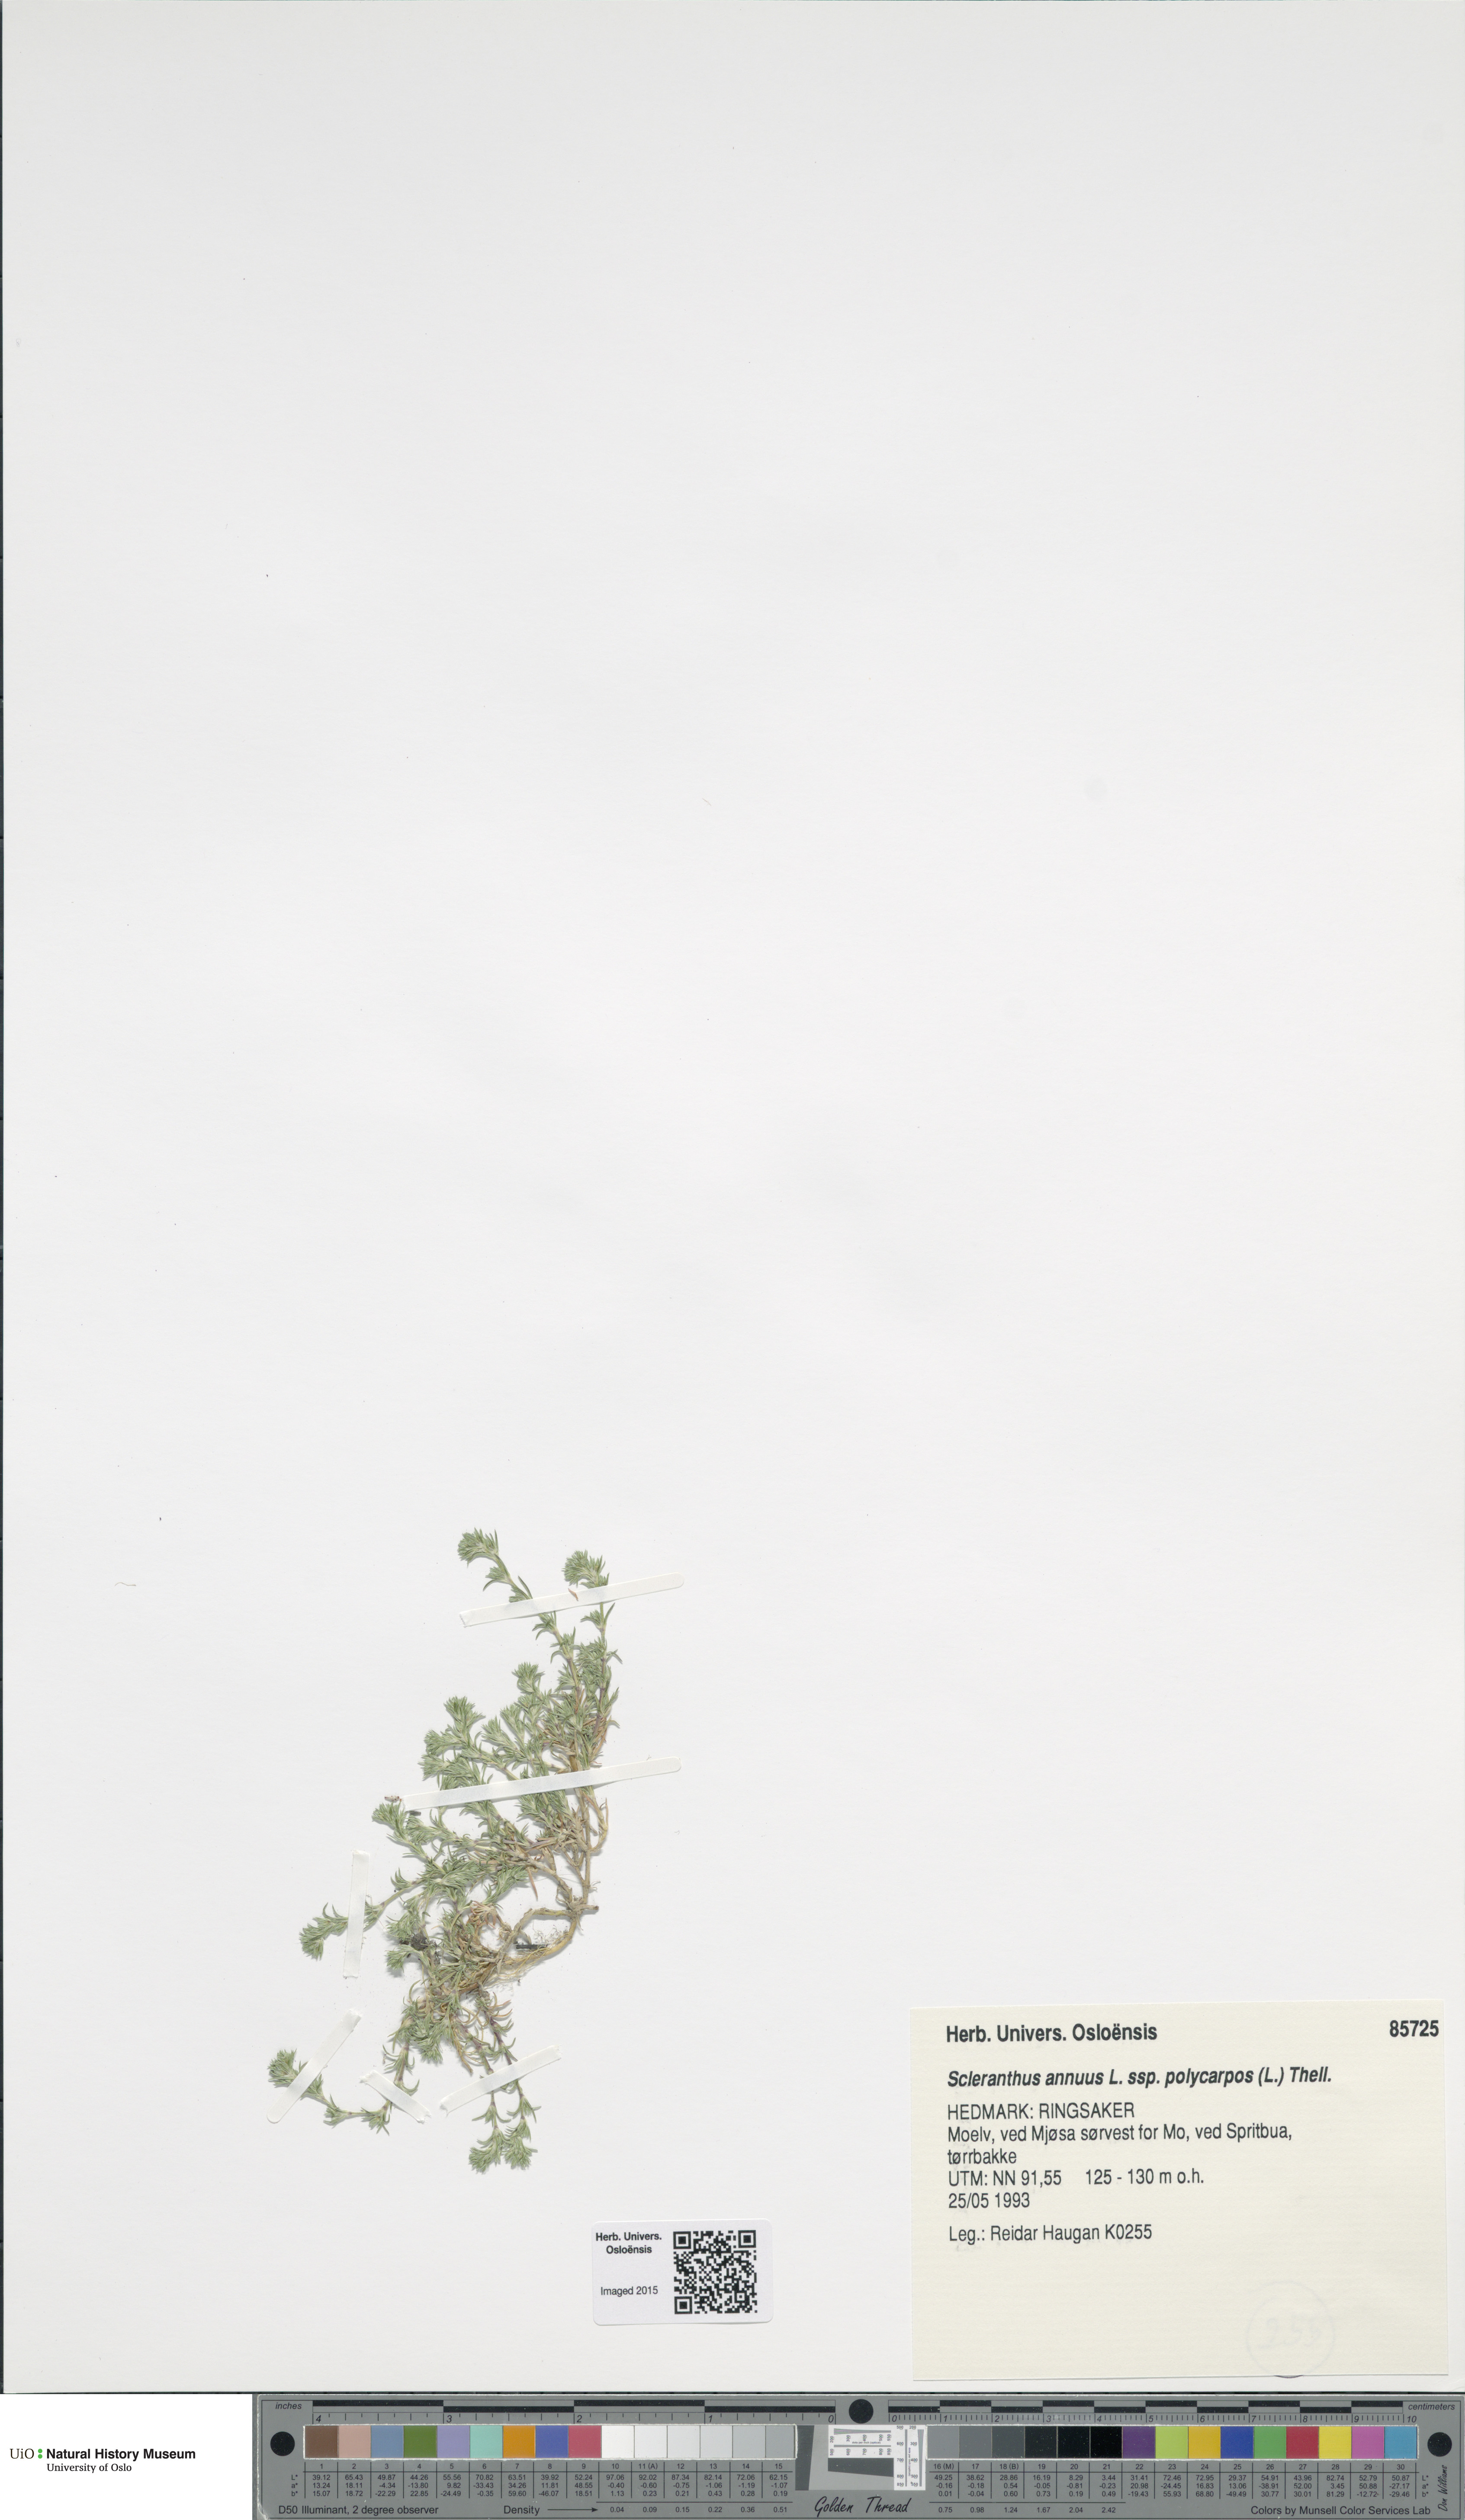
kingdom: Plantae
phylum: Tracheophyta
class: Magnoliopsida
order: Caryophyllales
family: Caryophyllaceae
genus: Scleranthus
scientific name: Scleranthus annuus
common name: Annual knawel
